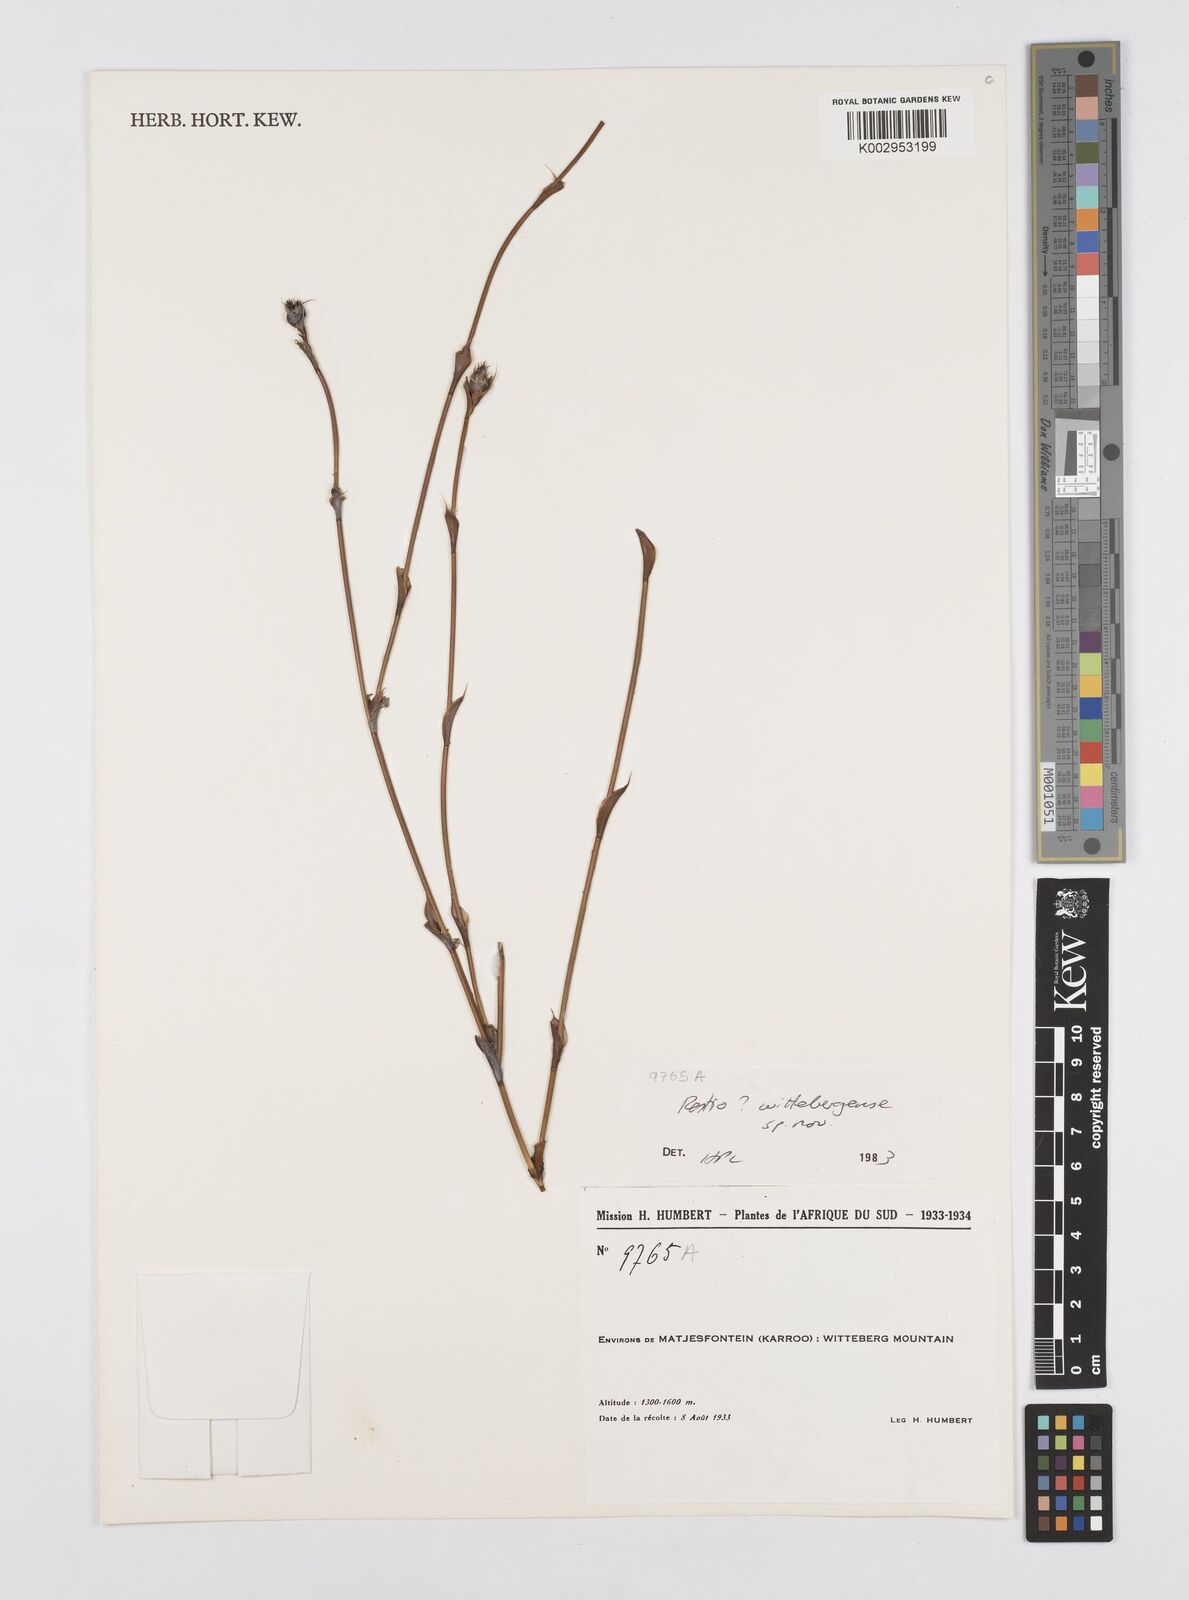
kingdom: Plantae
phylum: Tracheophyta
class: Liliopsida
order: Poales
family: Restionaceae
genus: Restio
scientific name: Restio wittebergensis
